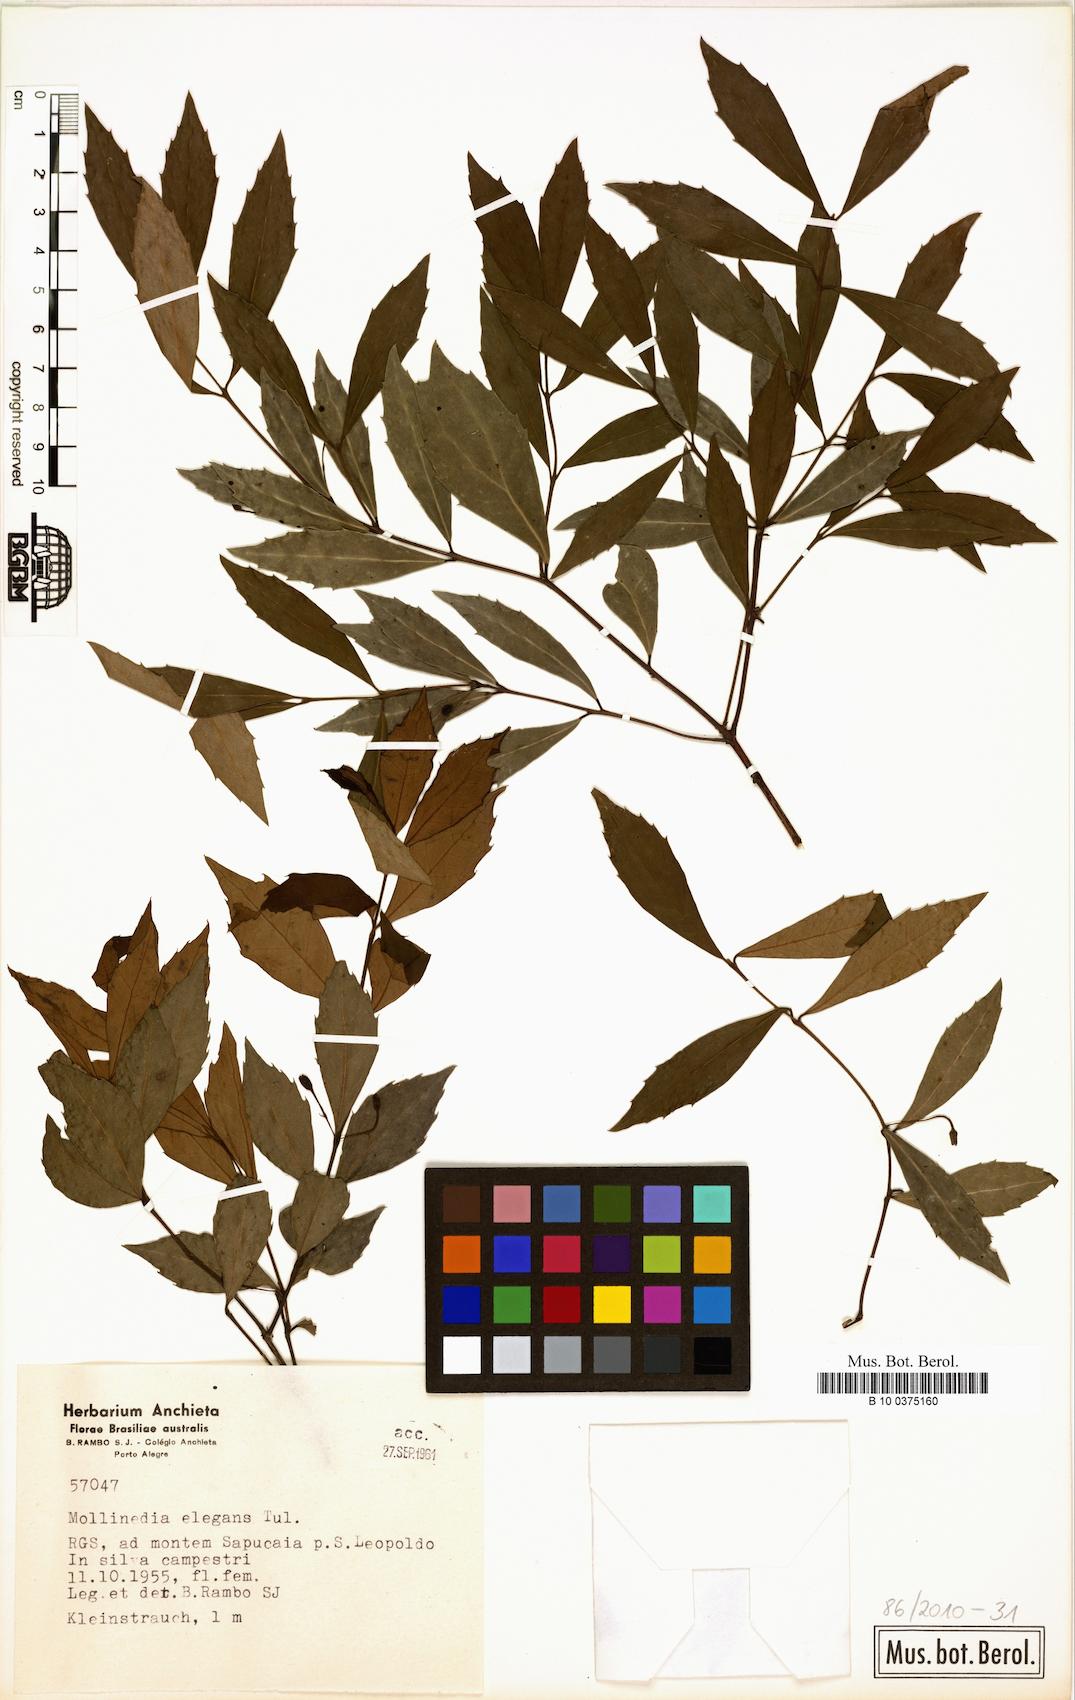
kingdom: Plantae
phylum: Tracheophyta
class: Magnoliopsida
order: Laurales
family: Monimiaceae
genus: Mollinedia
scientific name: Mollinedia elegans
